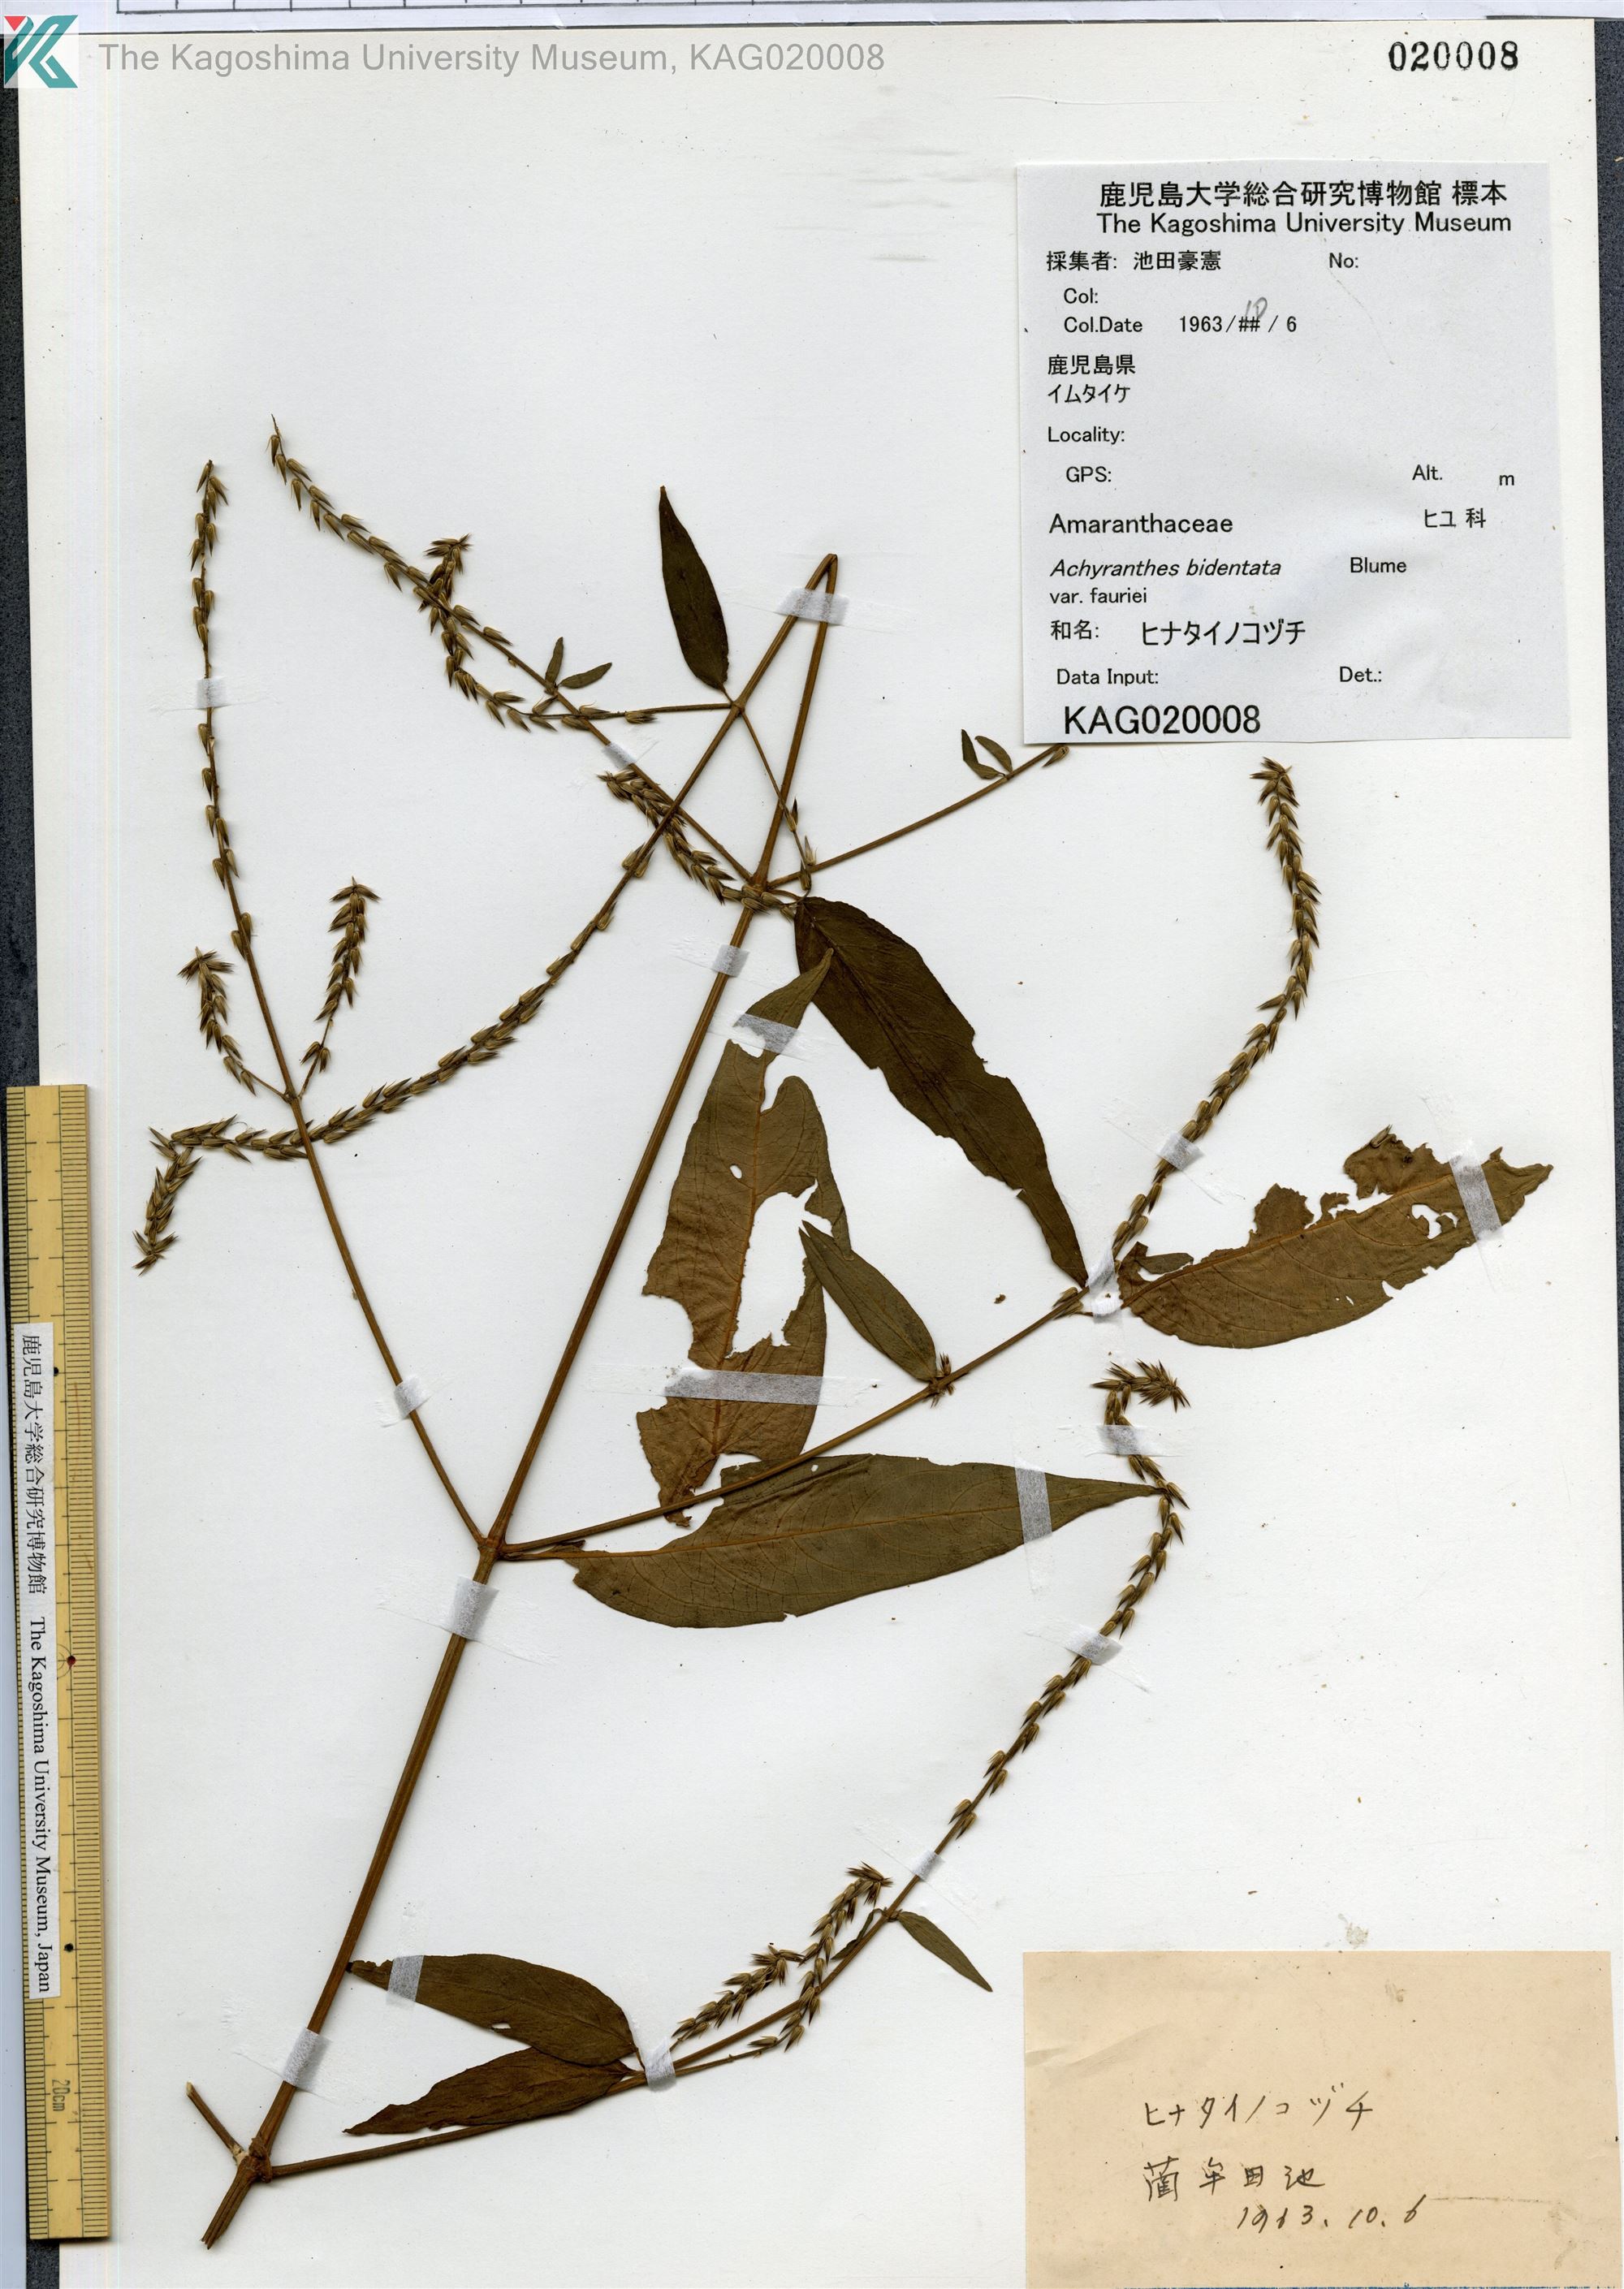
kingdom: Plantae
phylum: Tracheophyta
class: Magnoliopsida
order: Caryophyllales
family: Amaranthaceae
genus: Achyranthes
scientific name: Achyranthes bidentata
